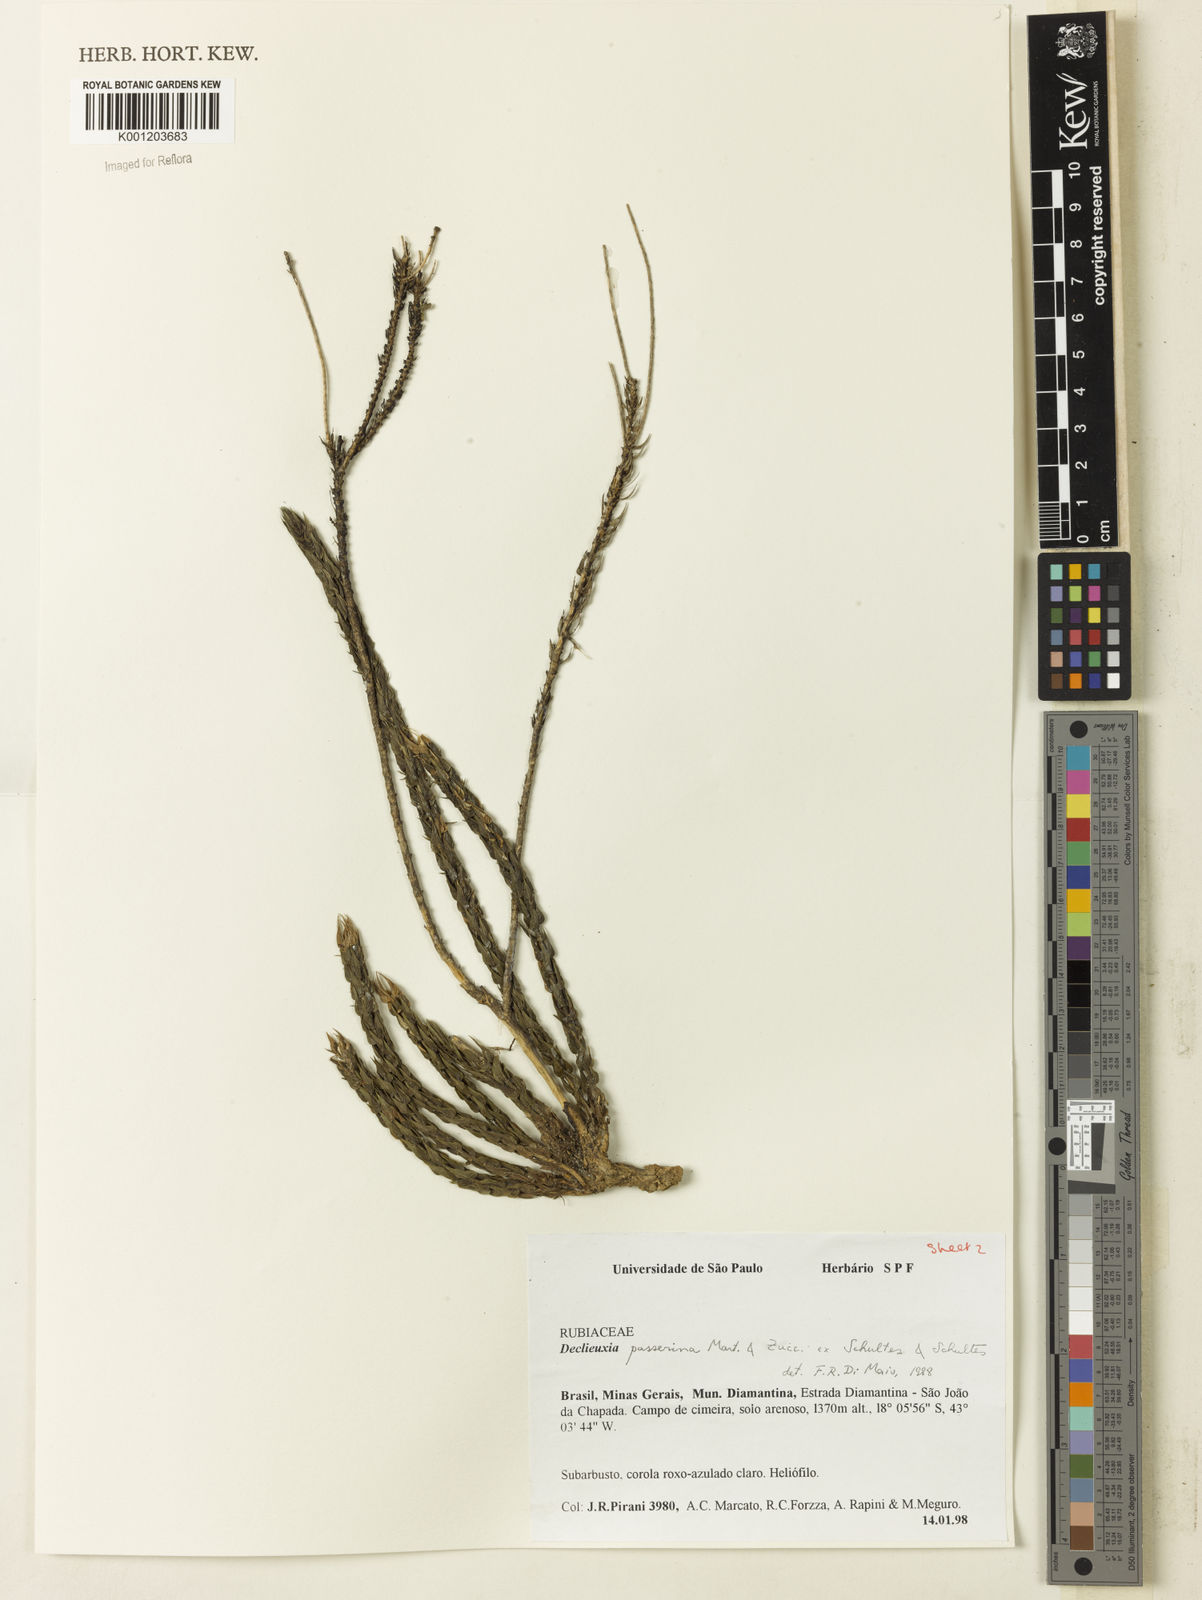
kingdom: Plantae
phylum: Tracheophyta
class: Magnoliopsida
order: Gentianales
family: Rubiaceae
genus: Declieuxia
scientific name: Declieuxia
